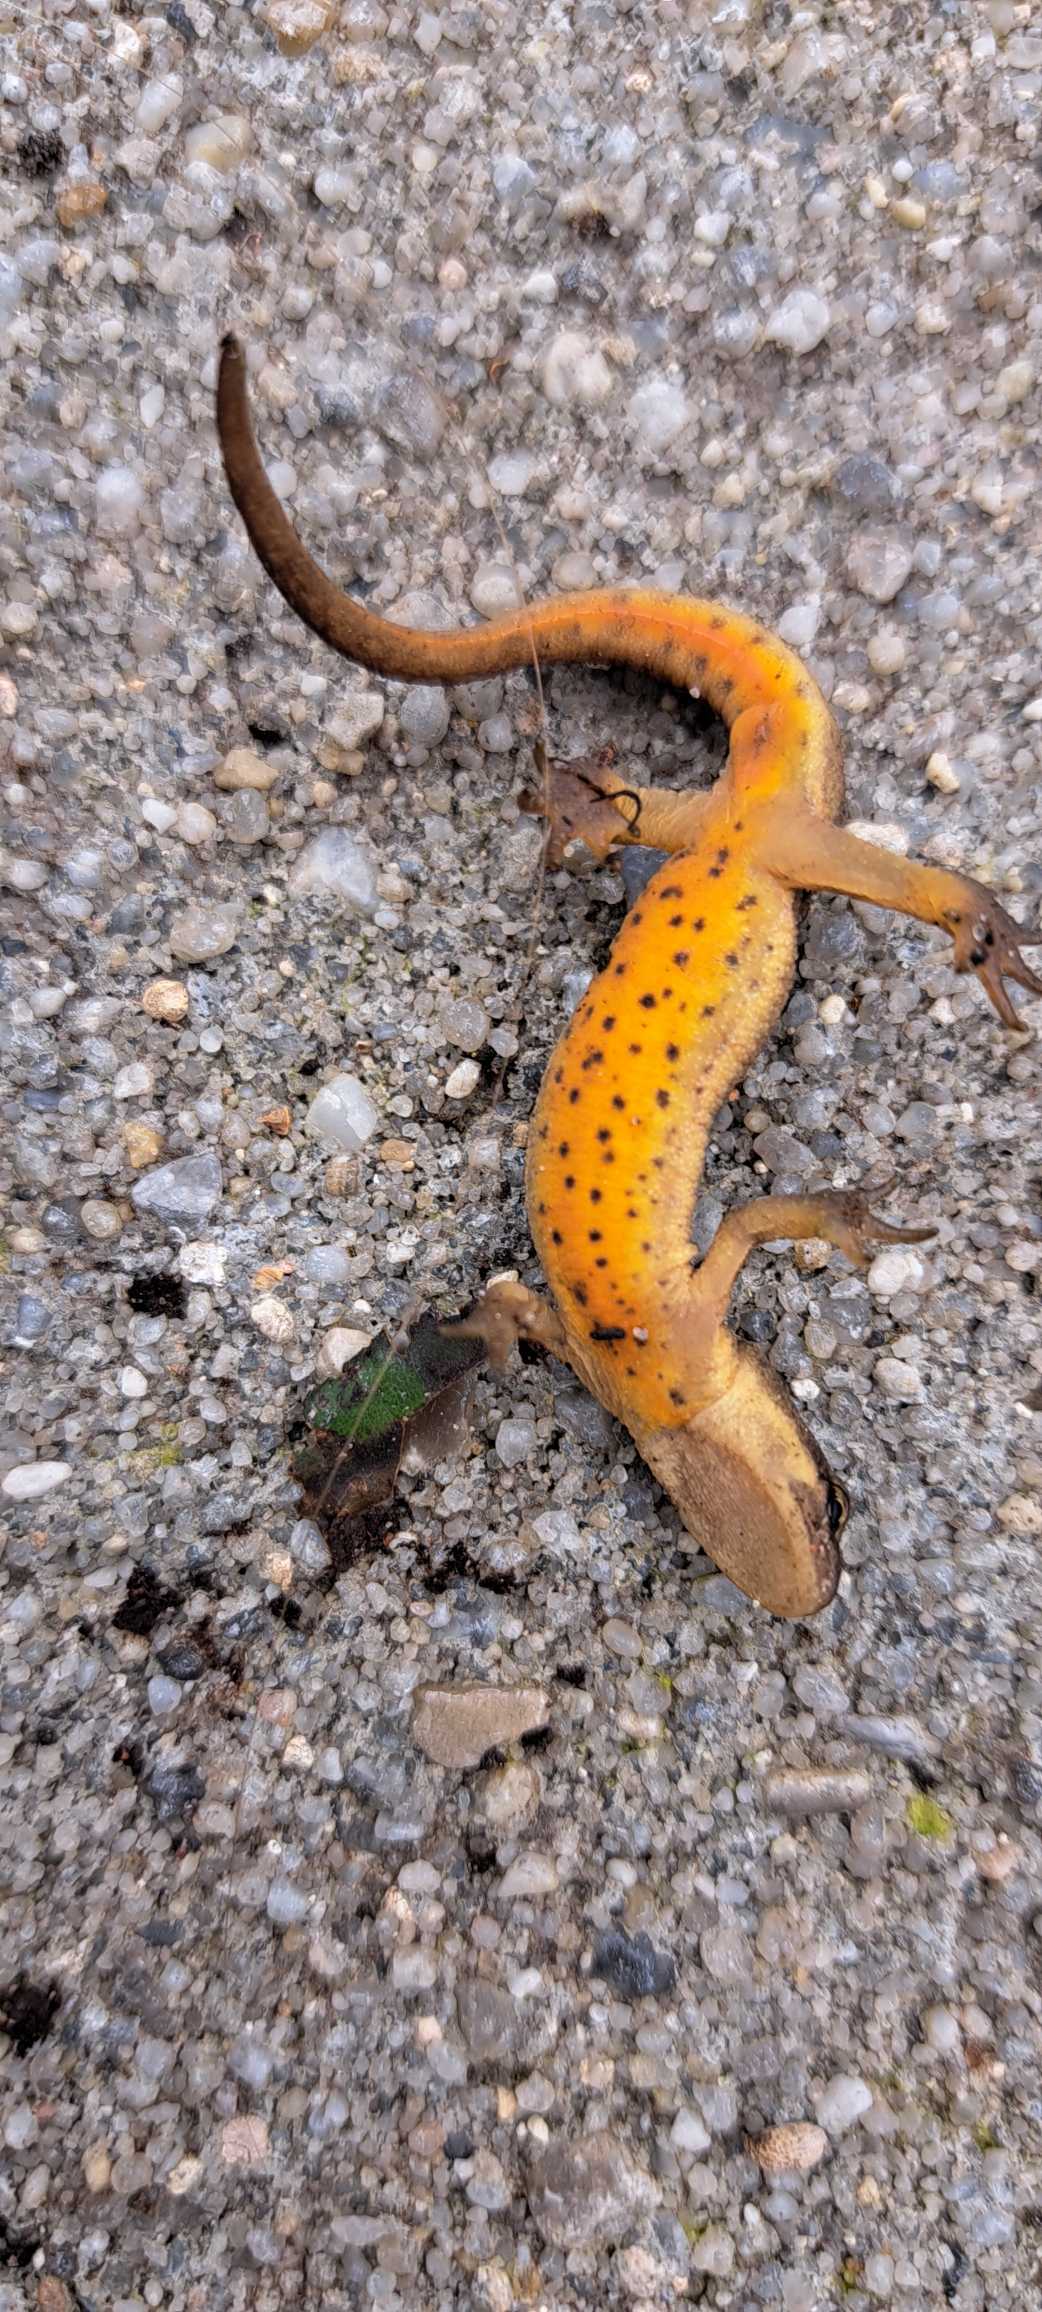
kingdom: Animalia
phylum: Chordata
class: Amphibia
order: Caudata
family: Salamandridae
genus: Lissotriton
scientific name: Lissotriton vulgaris
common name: Lille vandsalamander
